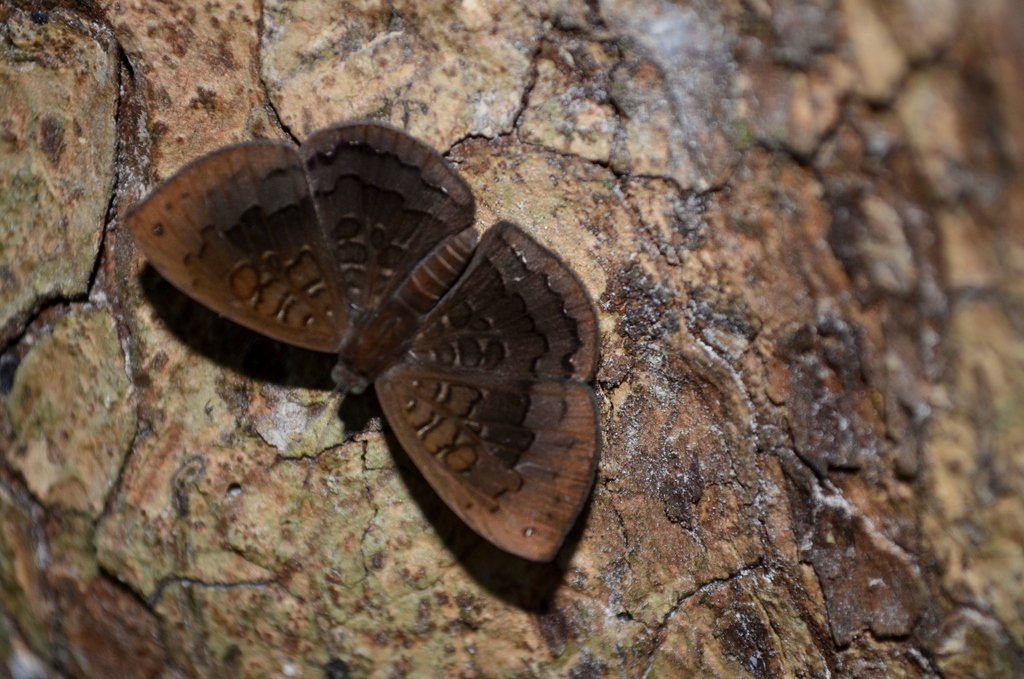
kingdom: Animalia
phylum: Arthropoda
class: Insecta
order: Lepidoptera
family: Riodinidae
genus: Voltinia
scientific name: Voltinia umbra
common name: Quilted Metalmark
